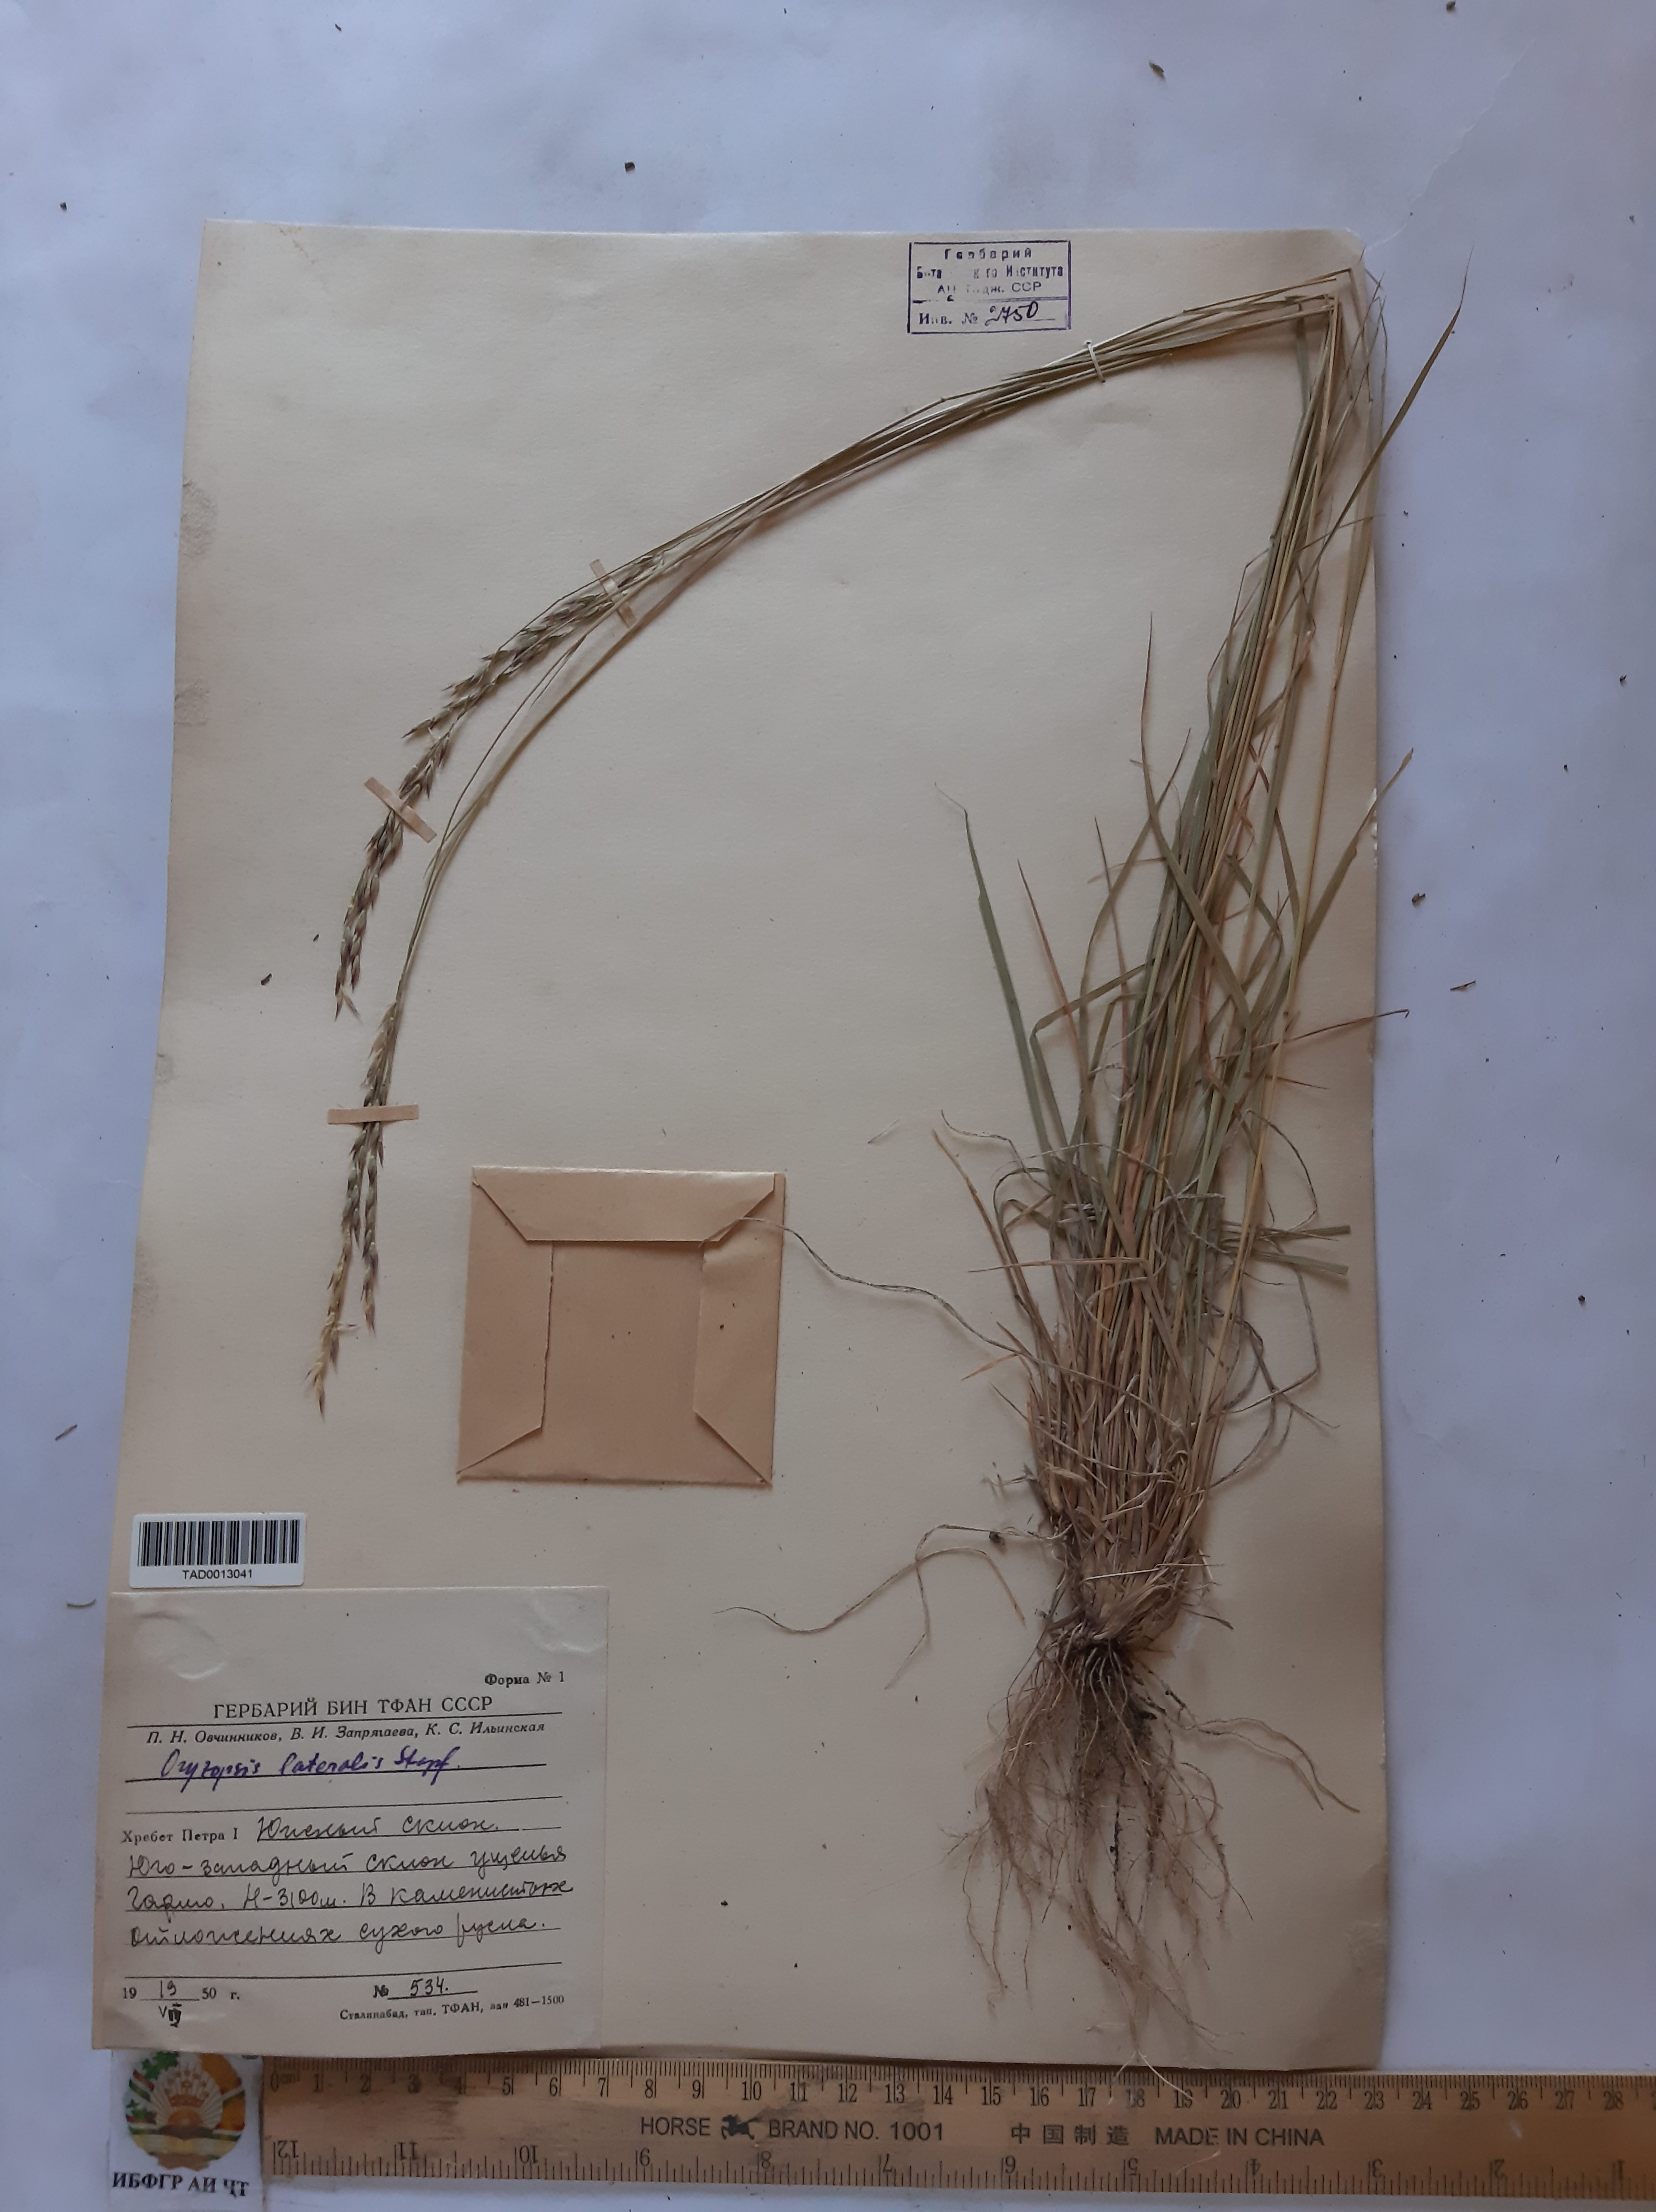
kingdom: Plantae
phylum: Tracheophyta
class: Liliopsida
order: Poales
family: Poaceae
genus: Piptatherum
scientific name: Piptatherum laterale
